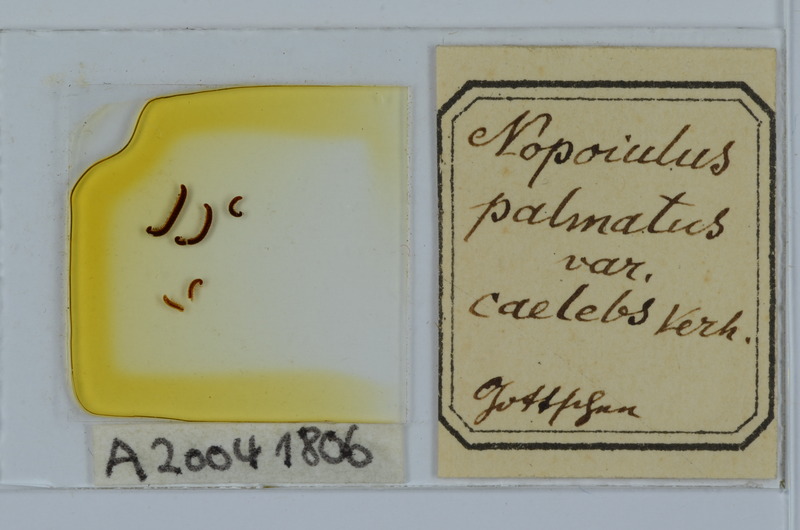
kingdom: Animalia
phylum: Arthropoda
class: Diplopoda
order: Julida
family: Blaniulidae
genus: Proteroiulus
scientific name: Proteroiulus fuscus
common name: Millipede
